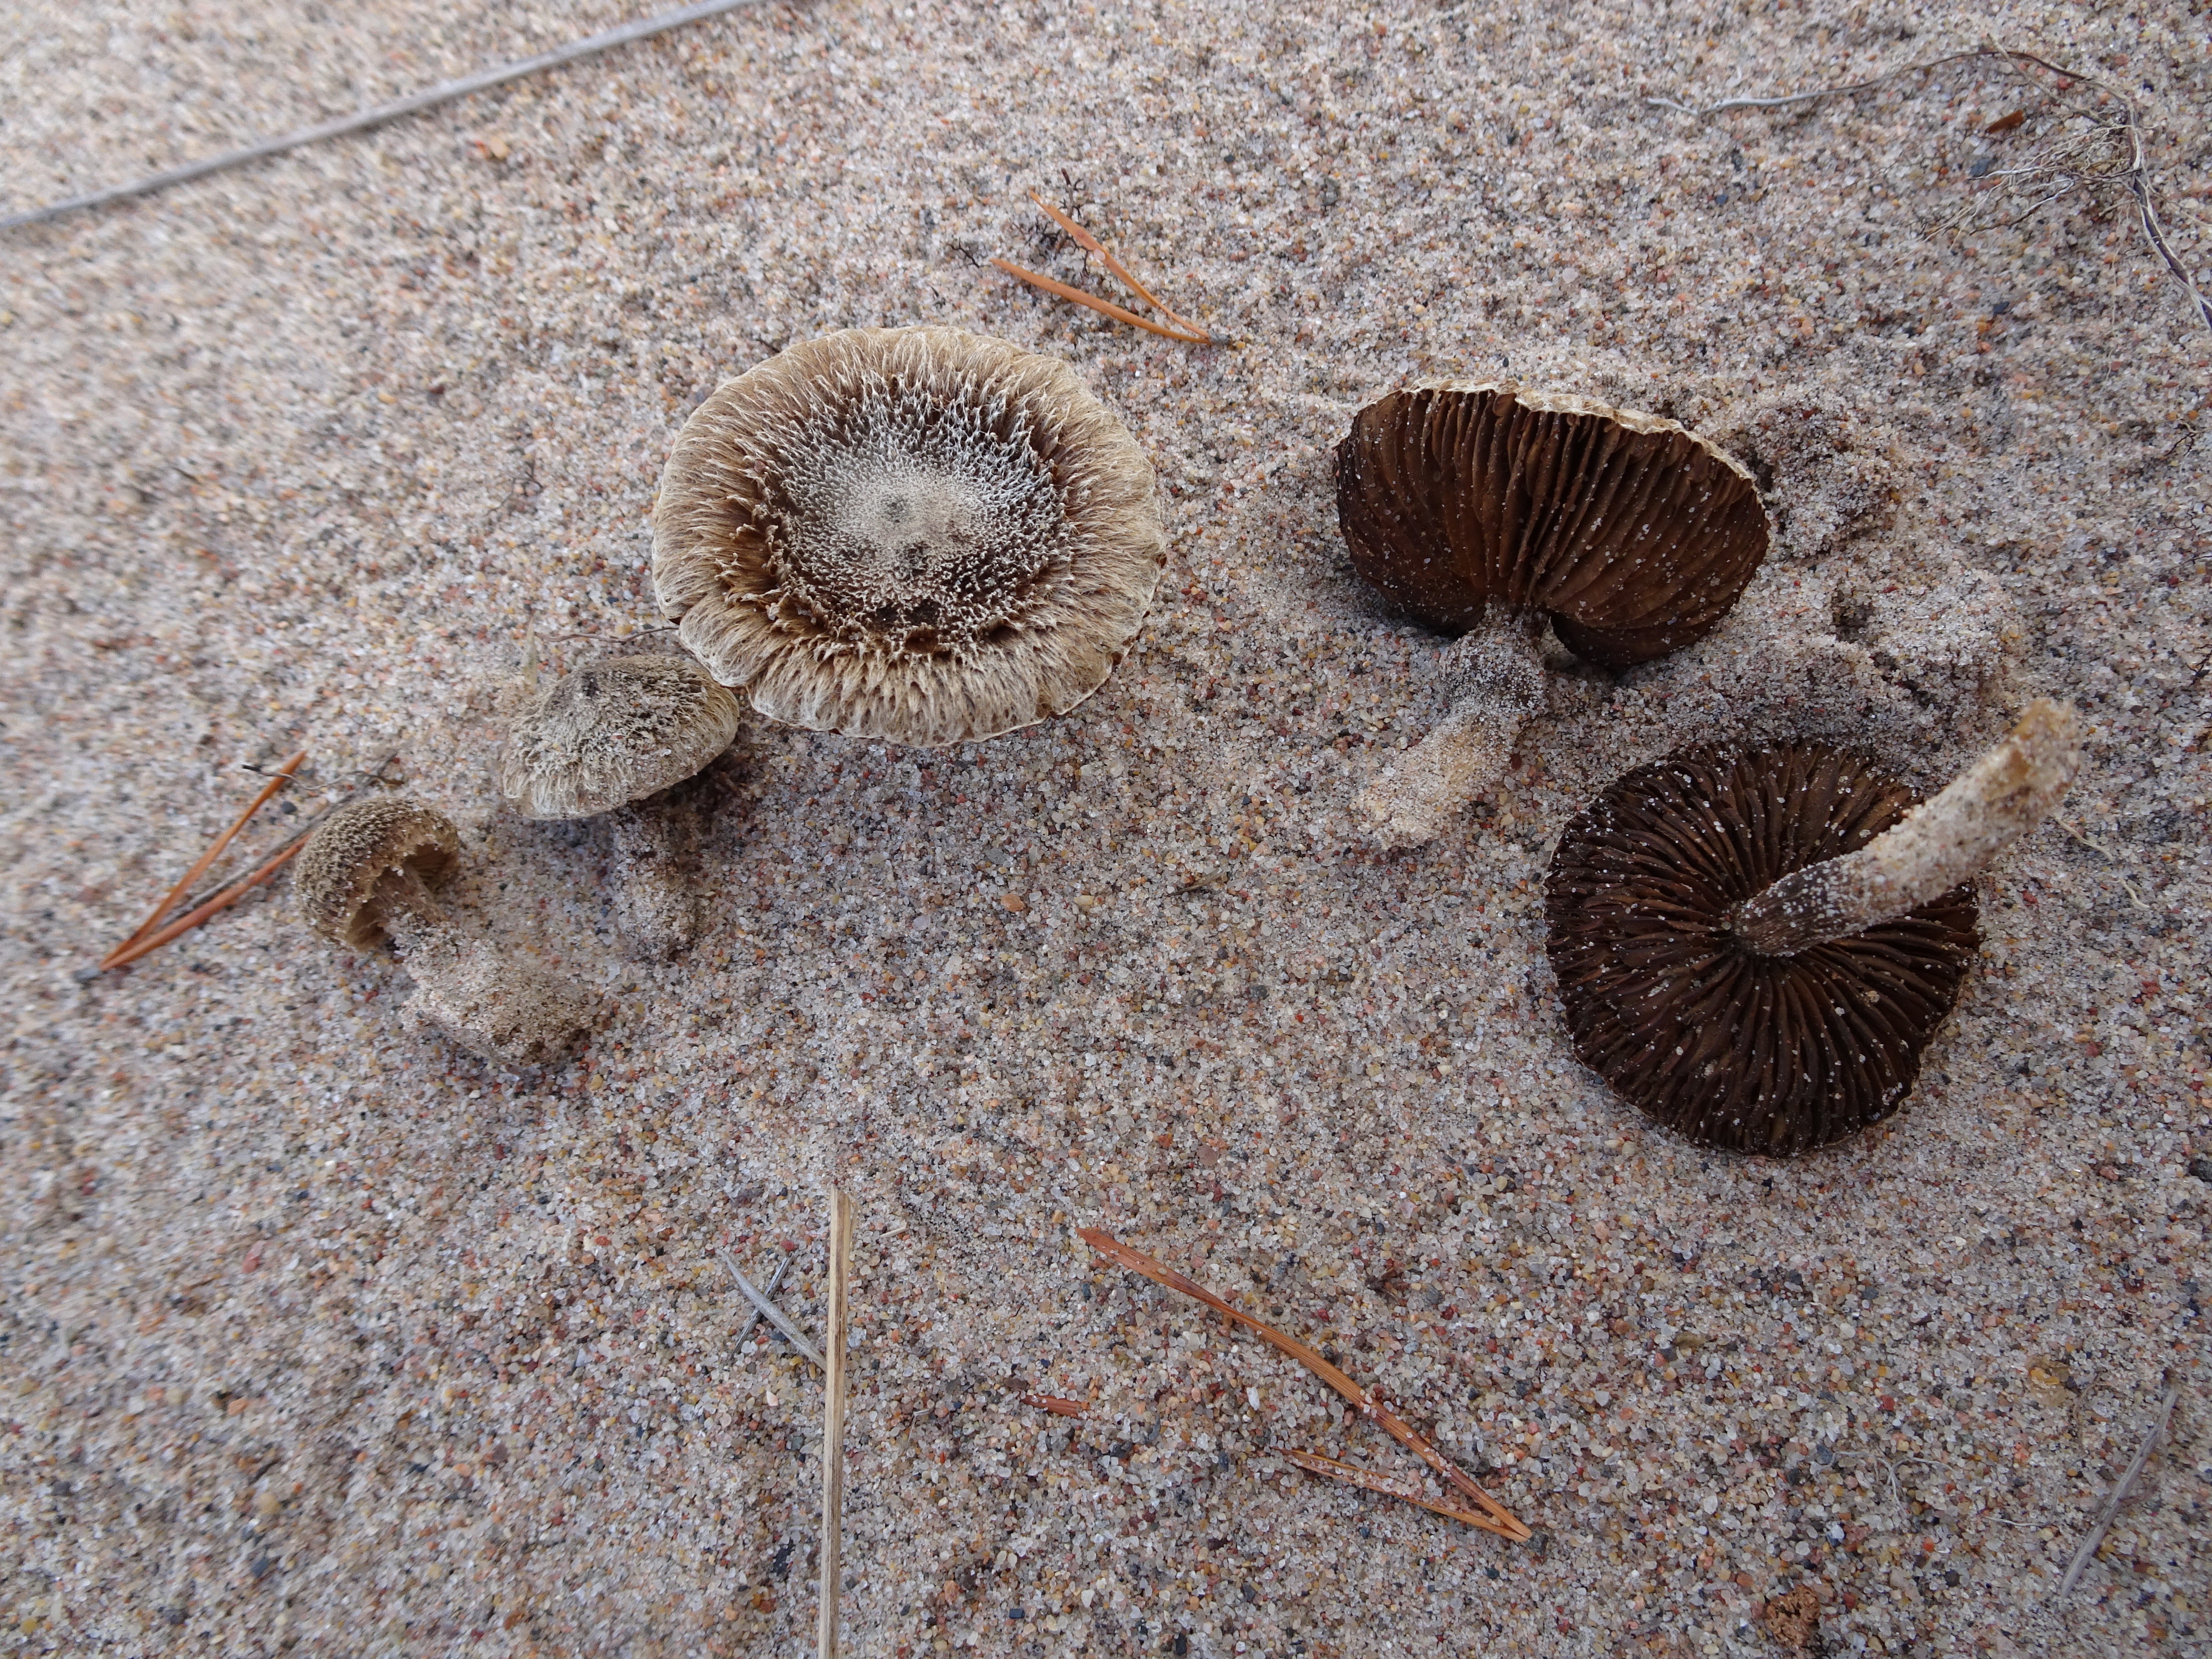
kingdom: Fungi
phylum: Basidiomycota
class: Agaricomycetes
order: Agaricales
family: Inocybaceae
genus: Inocybe
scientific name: Inocybe impexa
